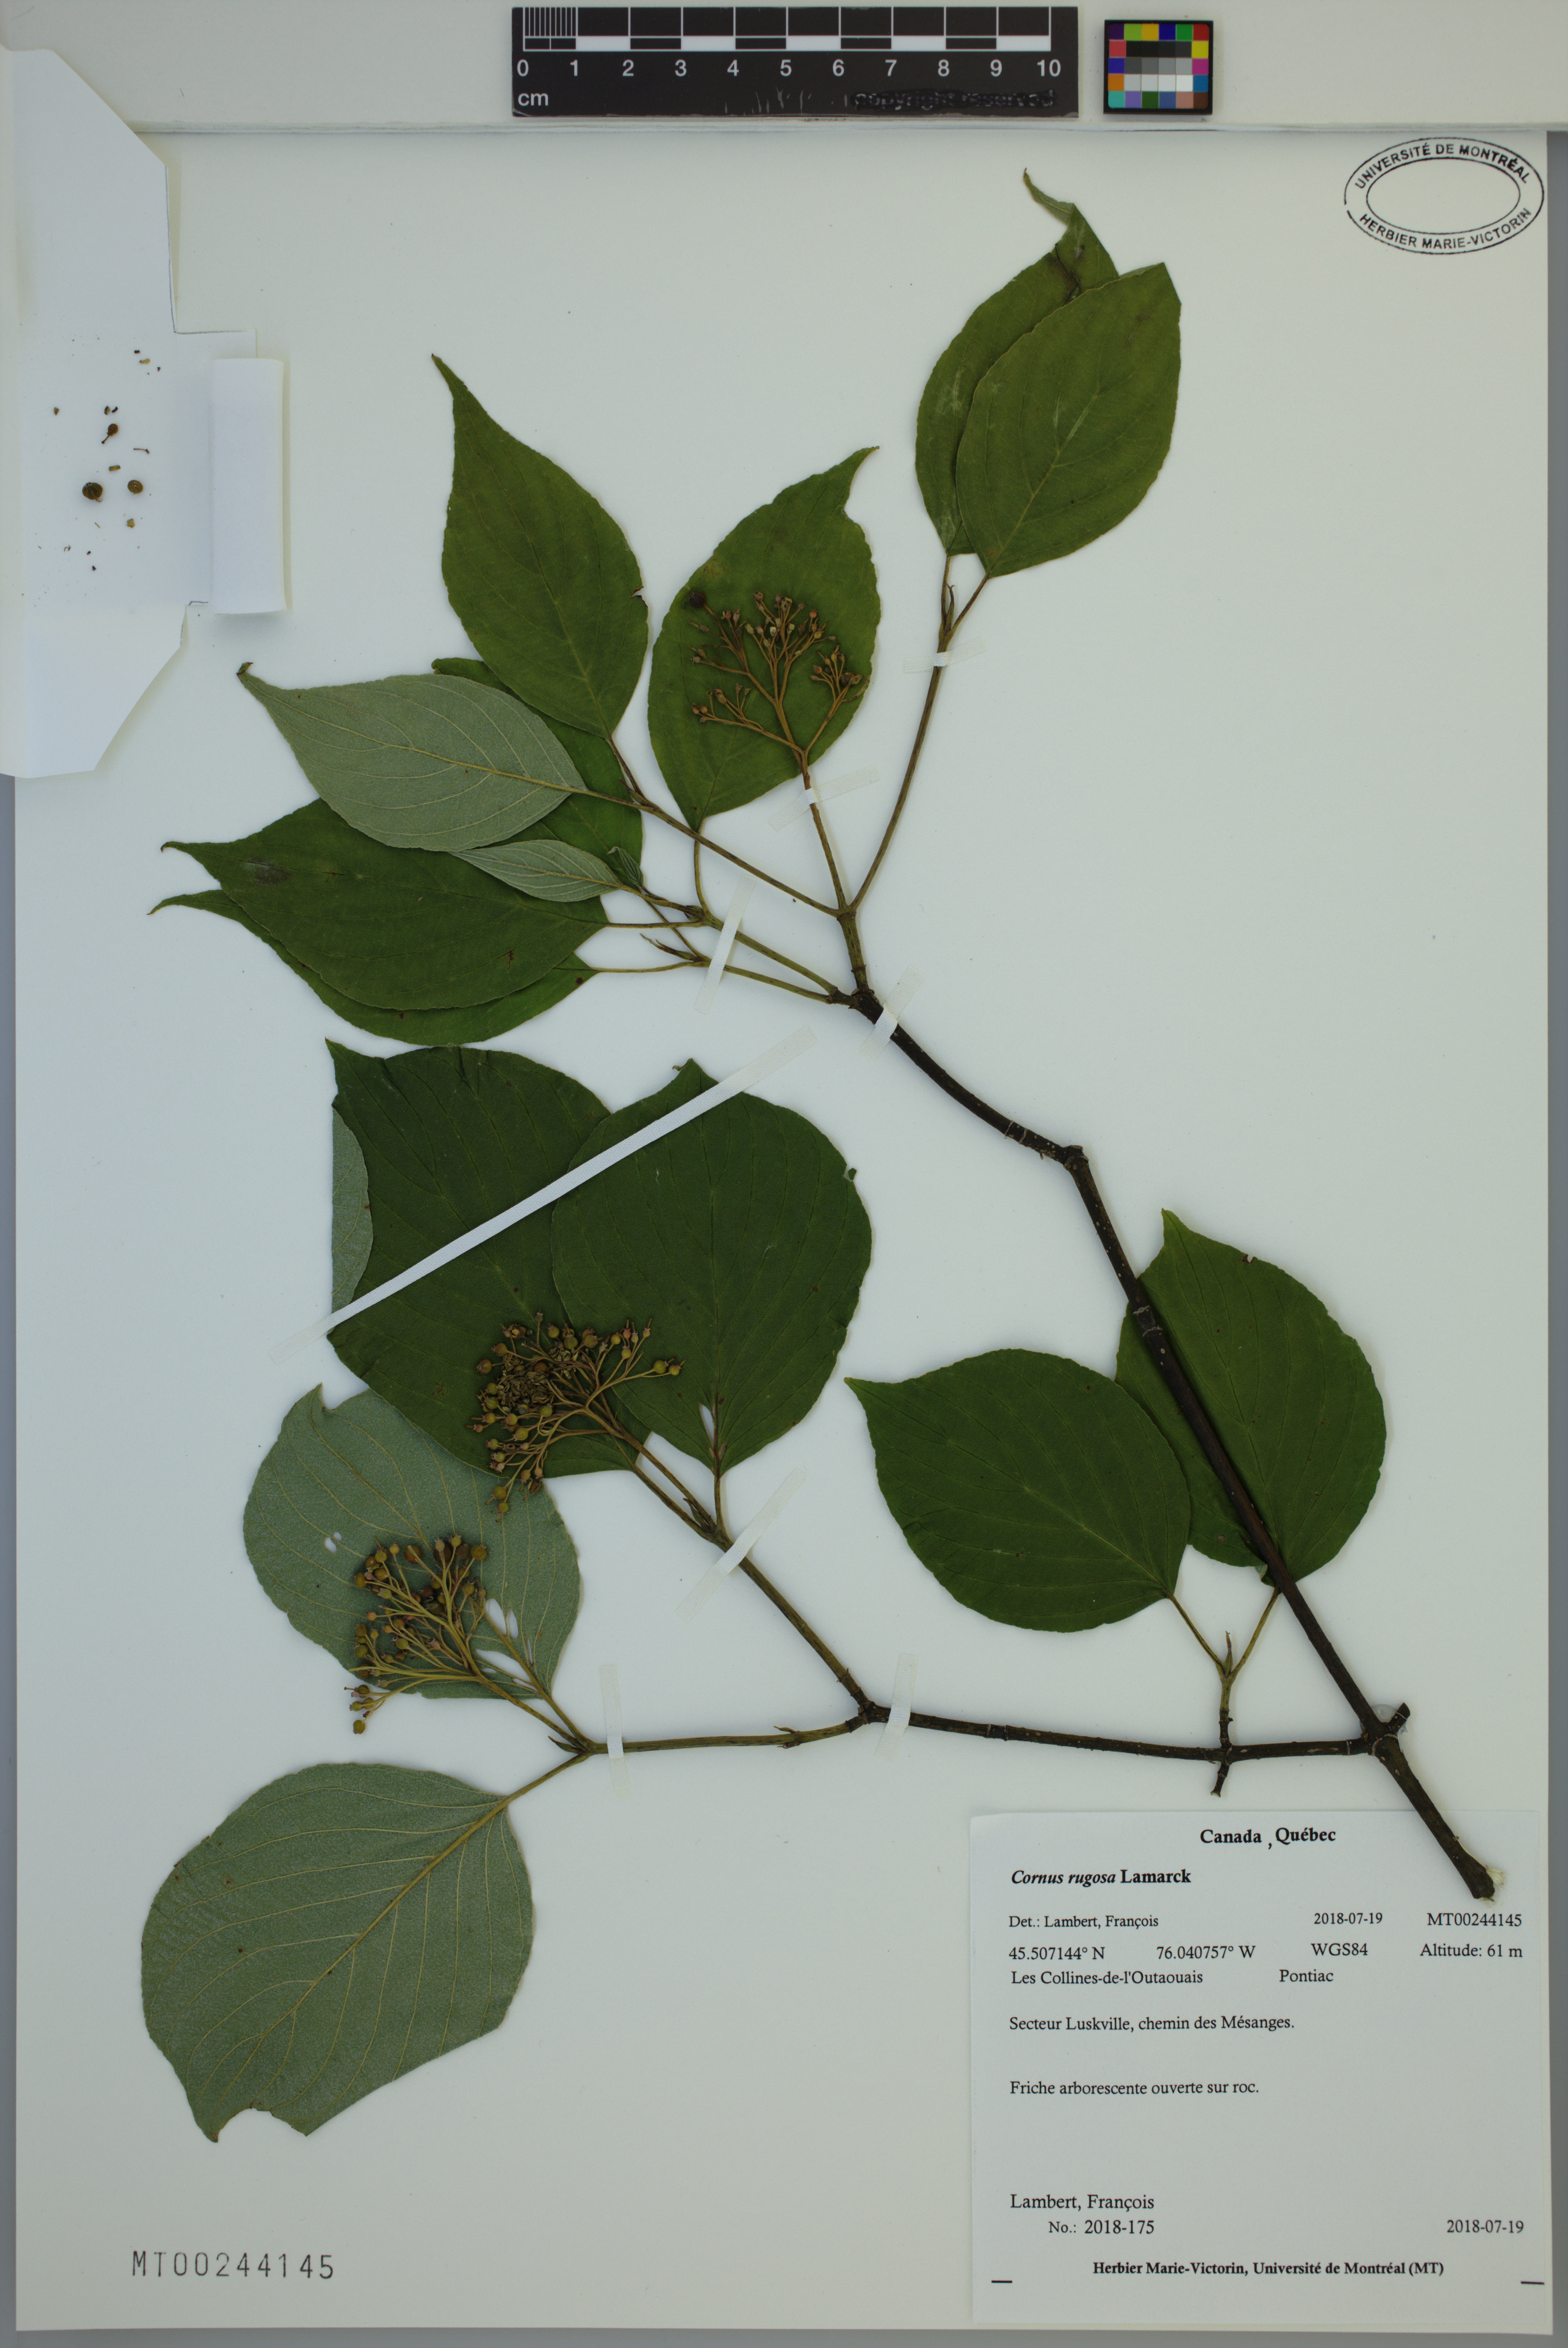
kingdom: Plantae
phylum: Tracheophyta
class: Magnoliopsida
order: Cornales
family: Cornaceae
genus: Cornus
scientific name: Cornus rugosa
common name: Round-leaf dogwood
